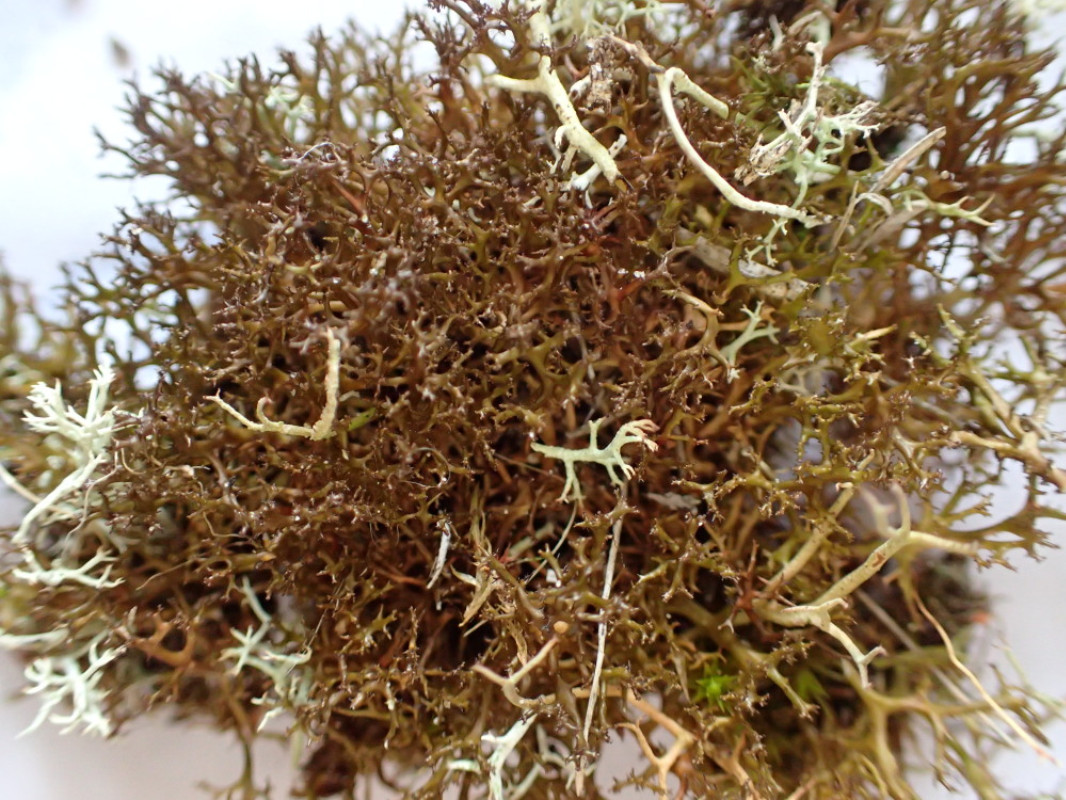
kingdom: Fungi
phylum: Ascomycota
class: Lecanoromycetes
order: Lecanorales
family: Parmeliaceae
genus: Cetraria
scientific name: Cetraria muricata
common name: tue-tjørnelav
